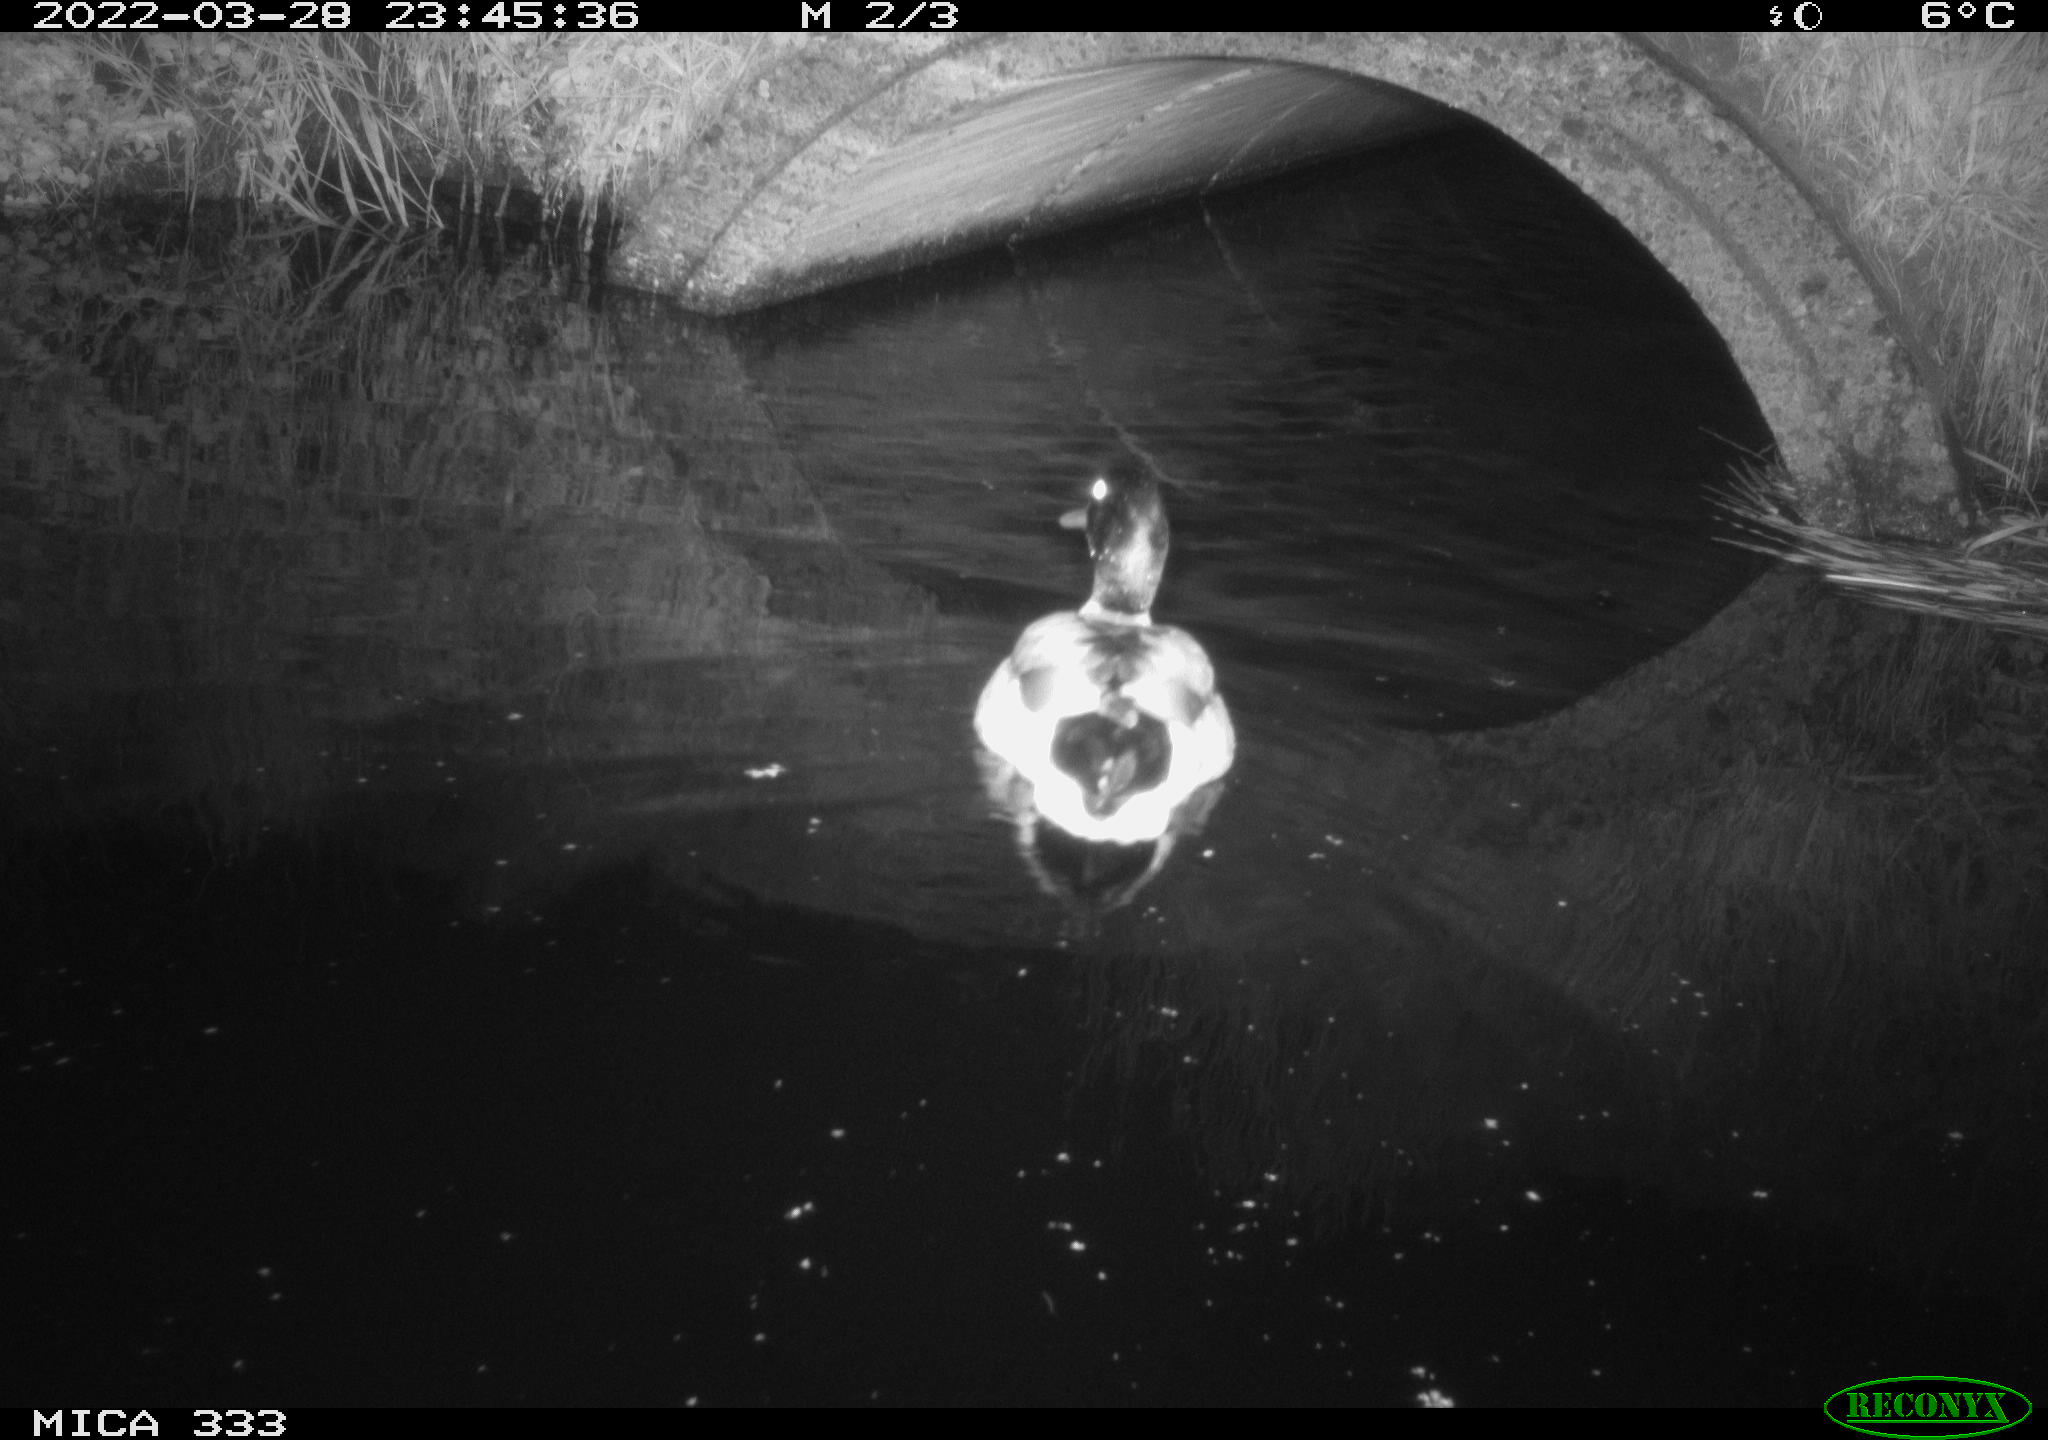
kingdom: Animalia
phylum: Chordata
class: Aves
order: Anseriformes
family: Anatidae
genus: Anas
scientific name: Anas platyrhynchos
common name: Mallard
